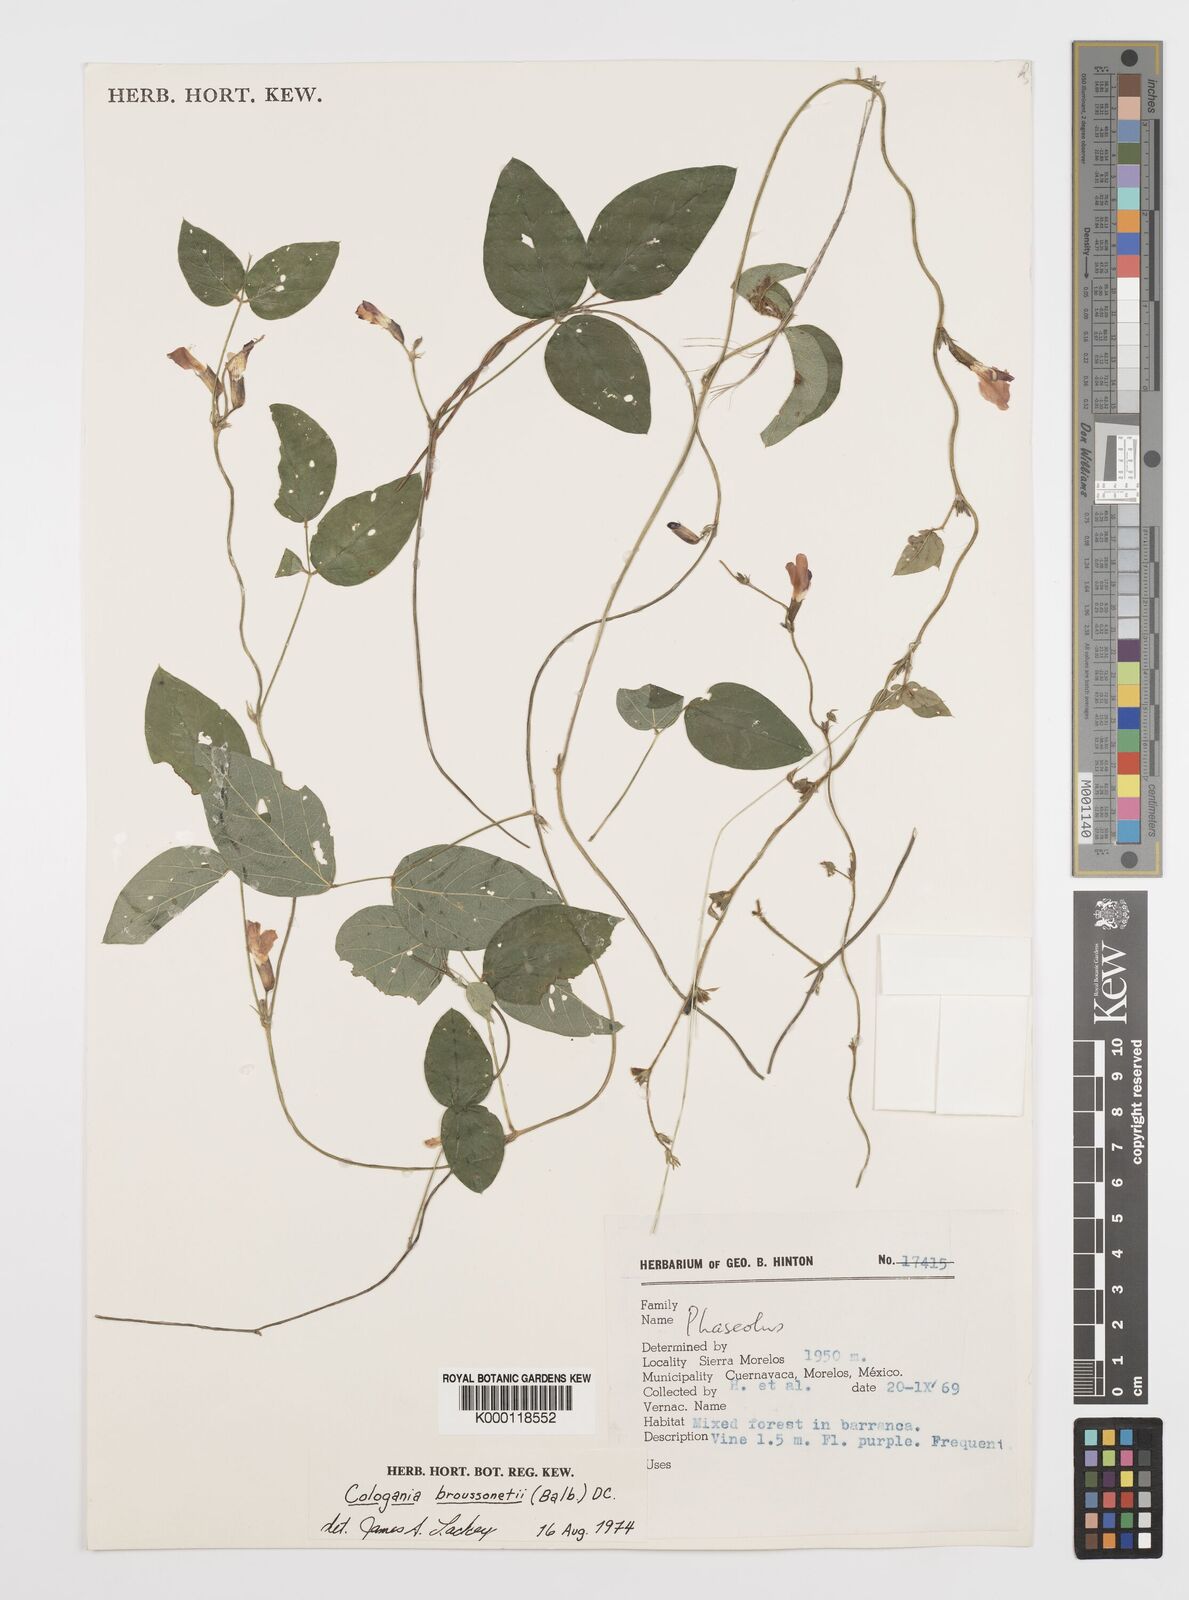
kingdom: Plantae
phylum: Tracheophyta
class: Magnoliopsida
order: Fabales
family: Fabaceae
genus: Cologania
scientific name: Cologania broussonetii
